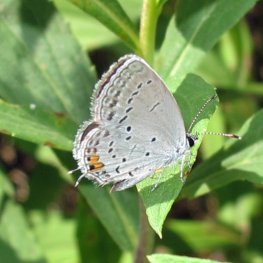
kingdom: Animalia
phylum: Arthropoda
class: Insecta
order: Lepidoptera
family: Lycaenidae
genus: Elkalyce
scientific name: Elkalyce comyntas
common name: Eastern Tailed-Blue
